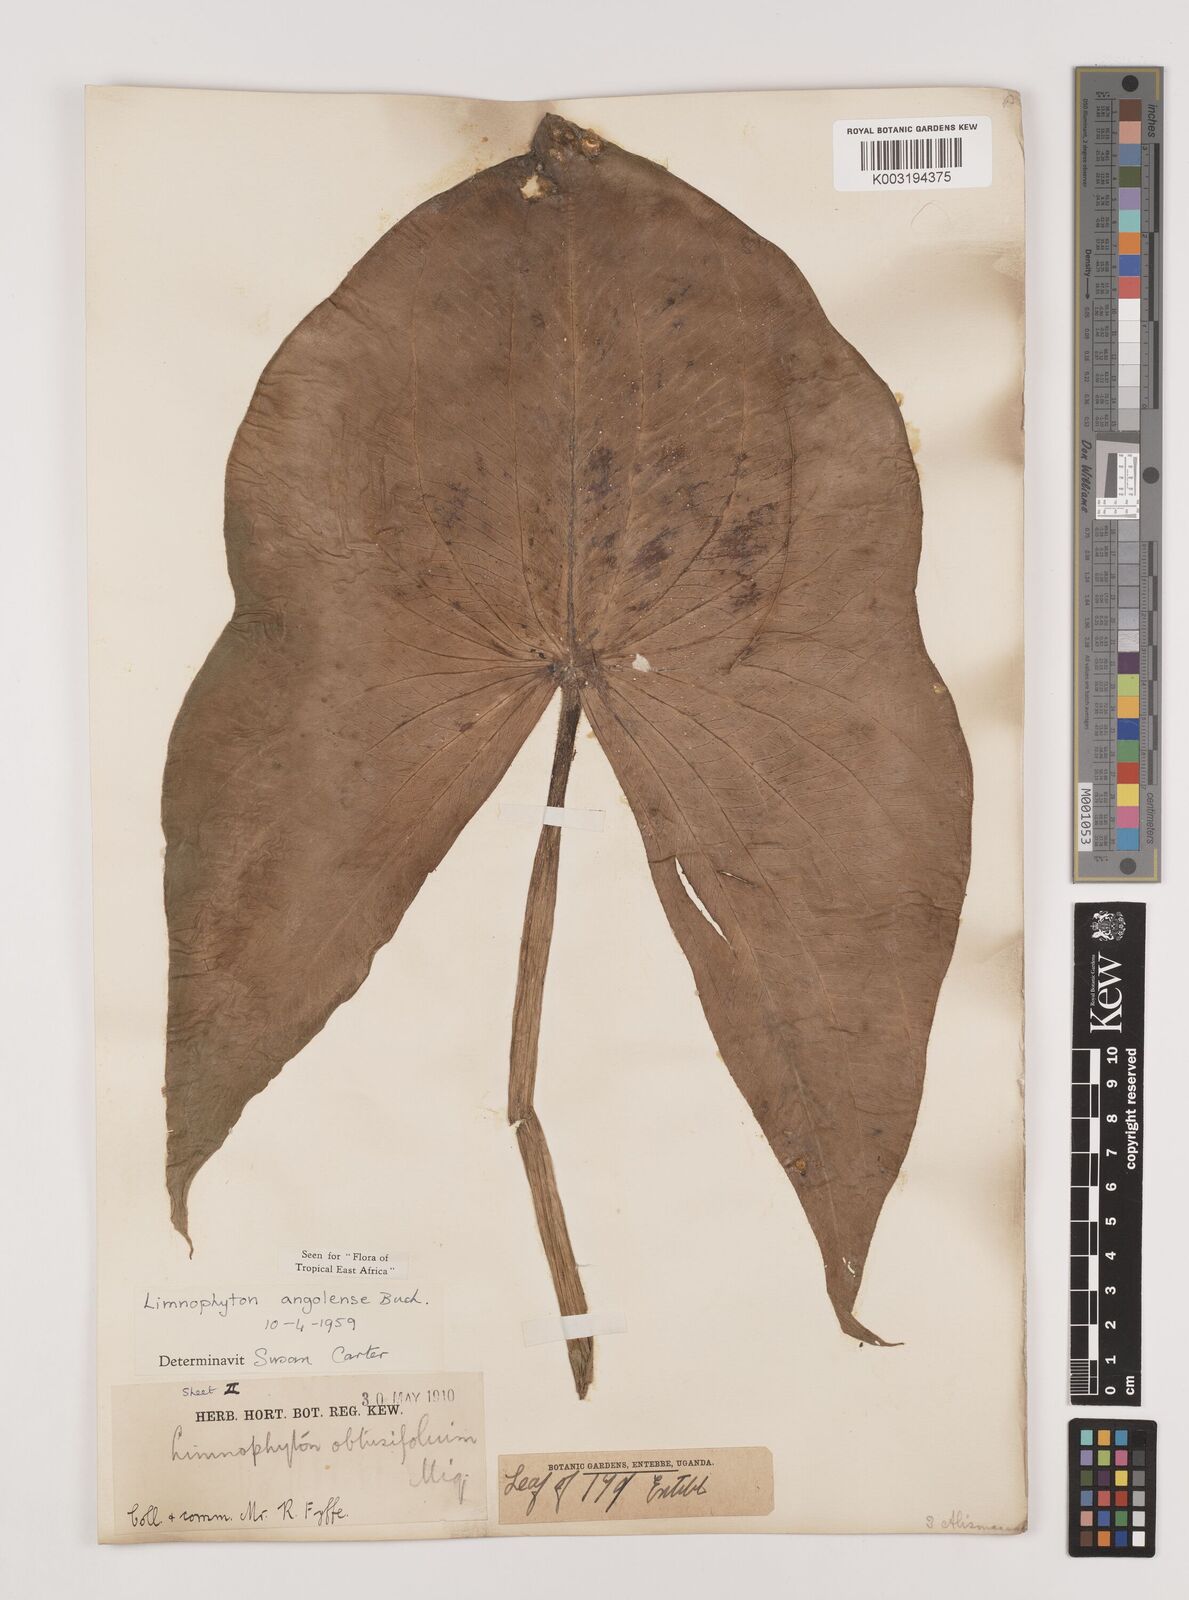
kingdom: Plantae
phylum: Tracheophyta
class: Liliopsida
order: Alismatales
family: Alismataceae
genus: Limnophyton
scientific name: Limnophyton angolense
